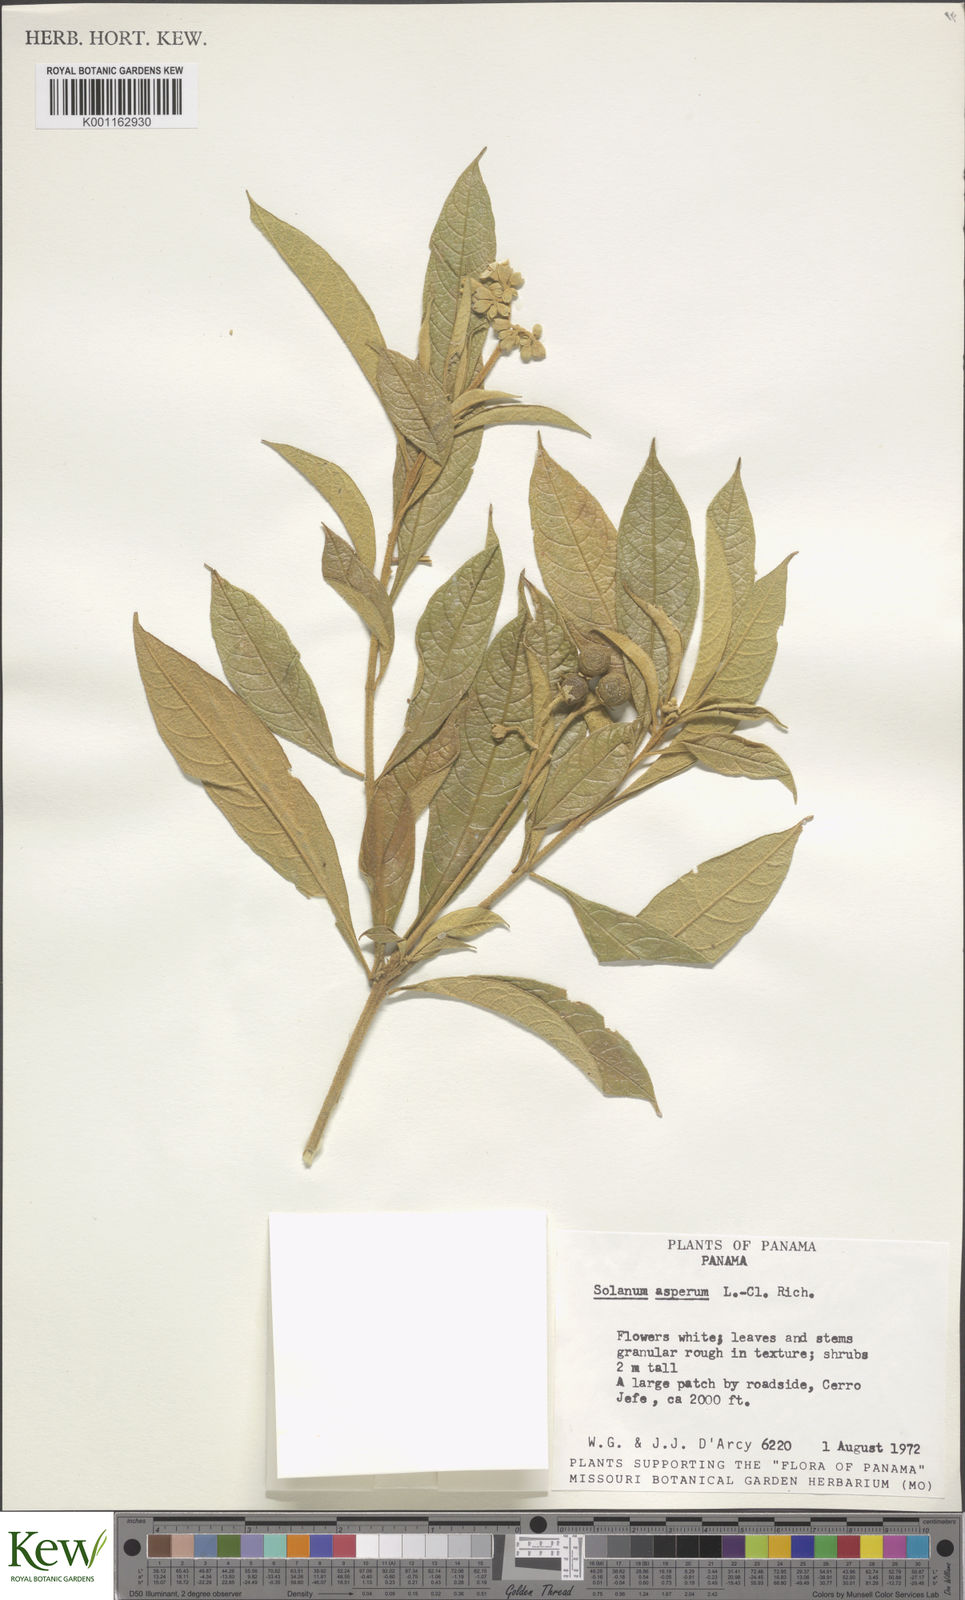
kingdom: Plantae
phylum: Tracheophyta
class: Magnoliopsida
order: Solanales
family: Solanaceae
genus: Solanum
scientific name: Solanum asperum
